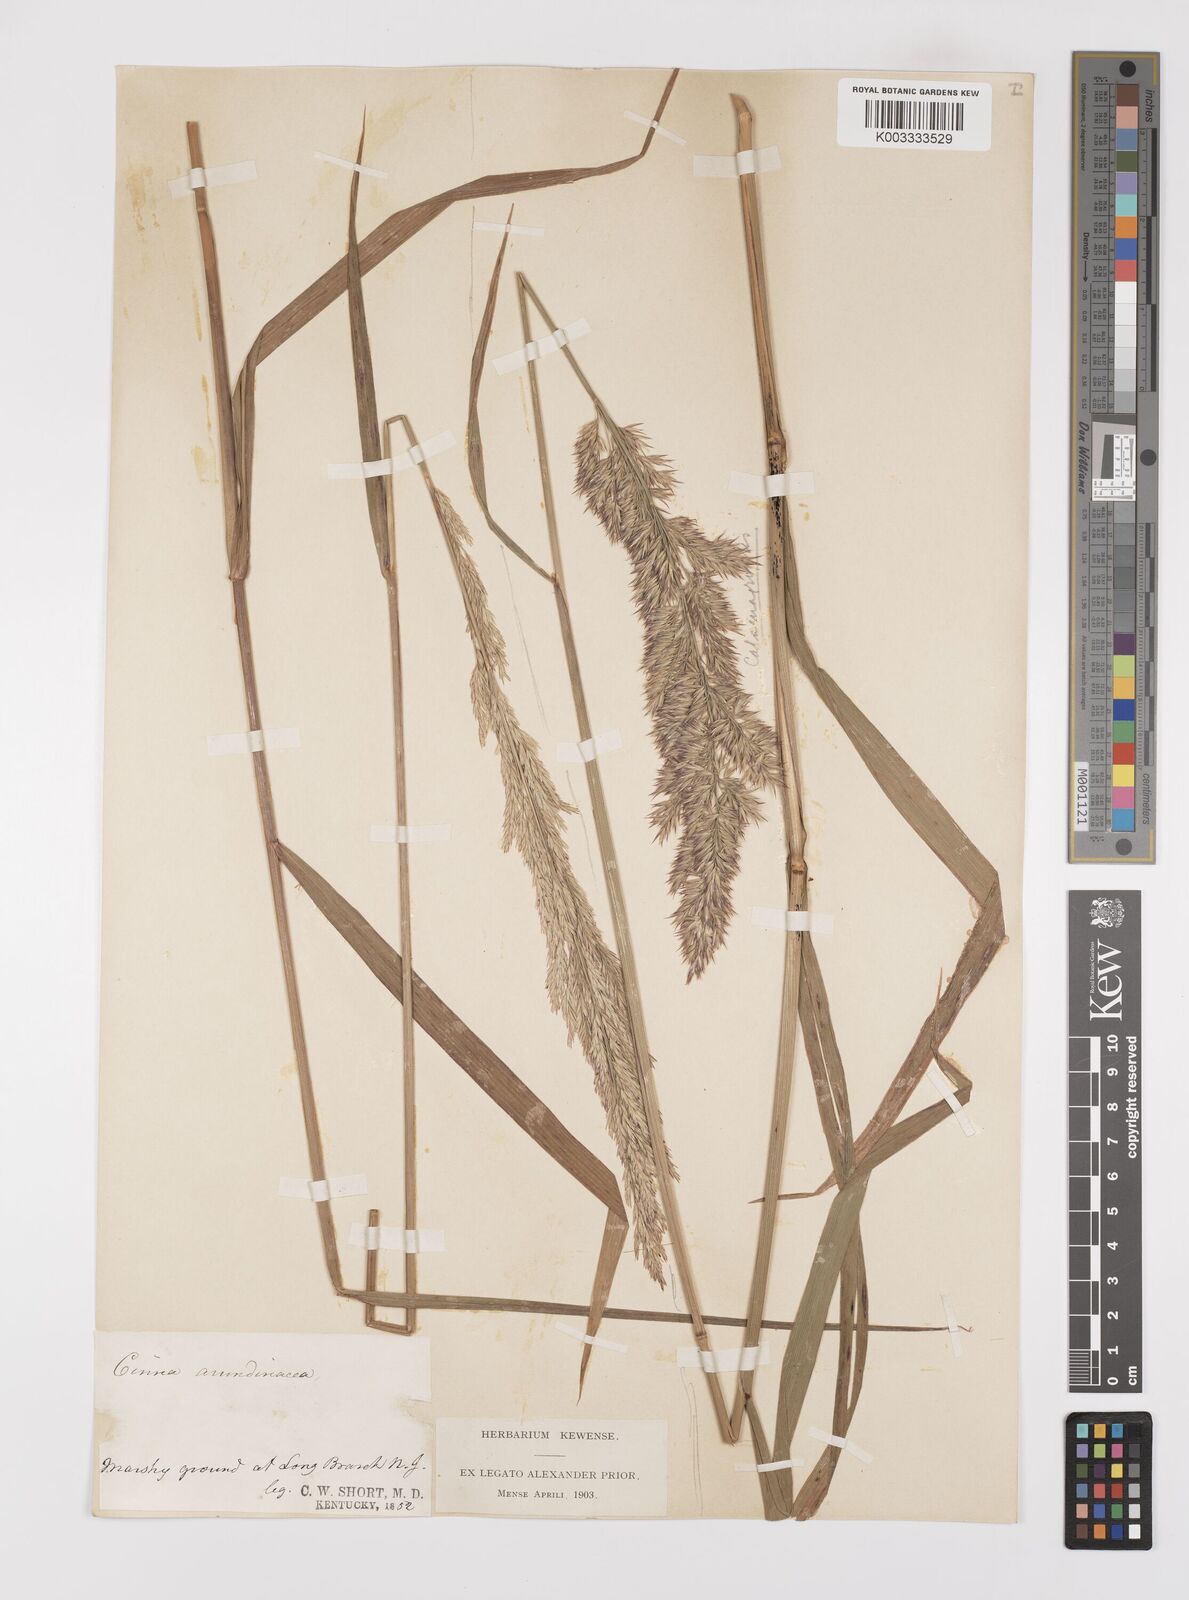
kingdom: Plantae
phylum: Tracheophyta
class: Liliopsida
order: Poales
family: Poaceae
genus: Cinna
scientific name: Cinna
